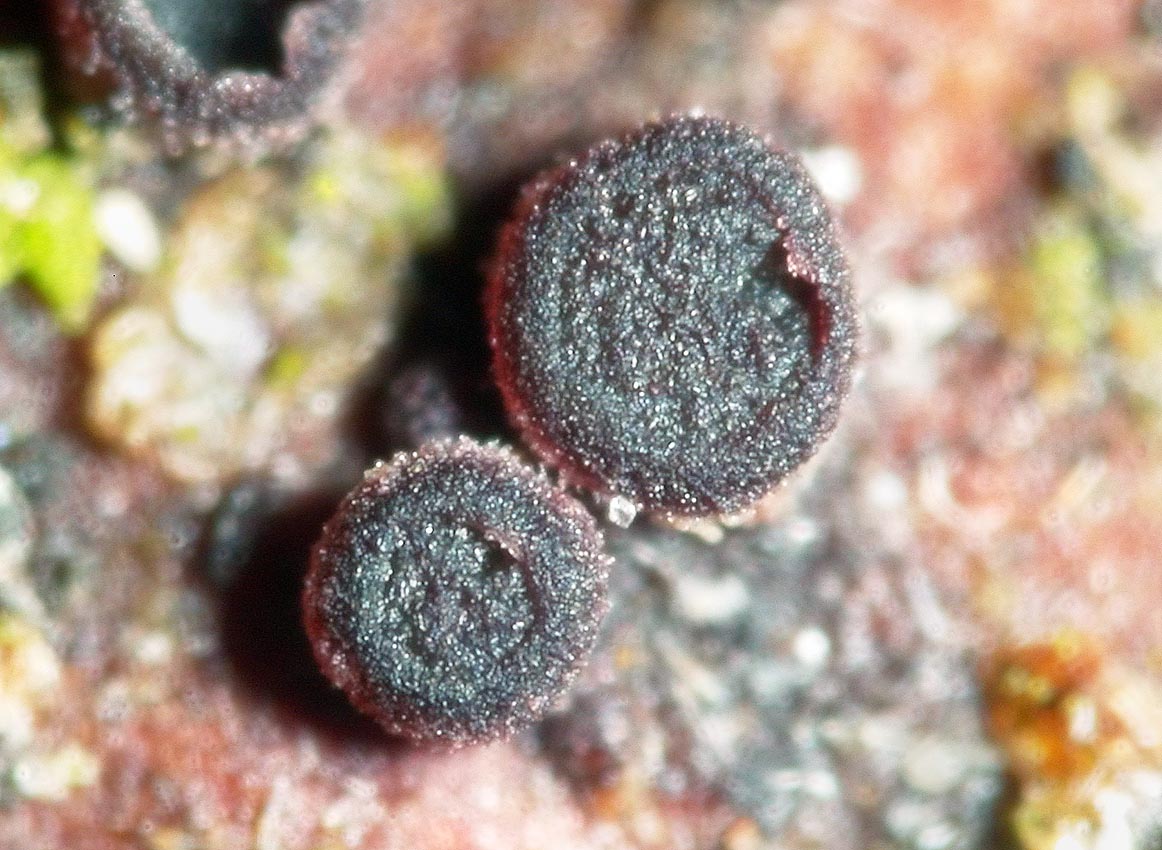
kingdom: Fungi
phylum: Ascomycota
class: Leotiomycetes
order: Helotiales
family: Patellariopsidaceae
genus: Patellariopsis
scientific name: Patellariopsis atrovinosa
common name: mørk vinskive
